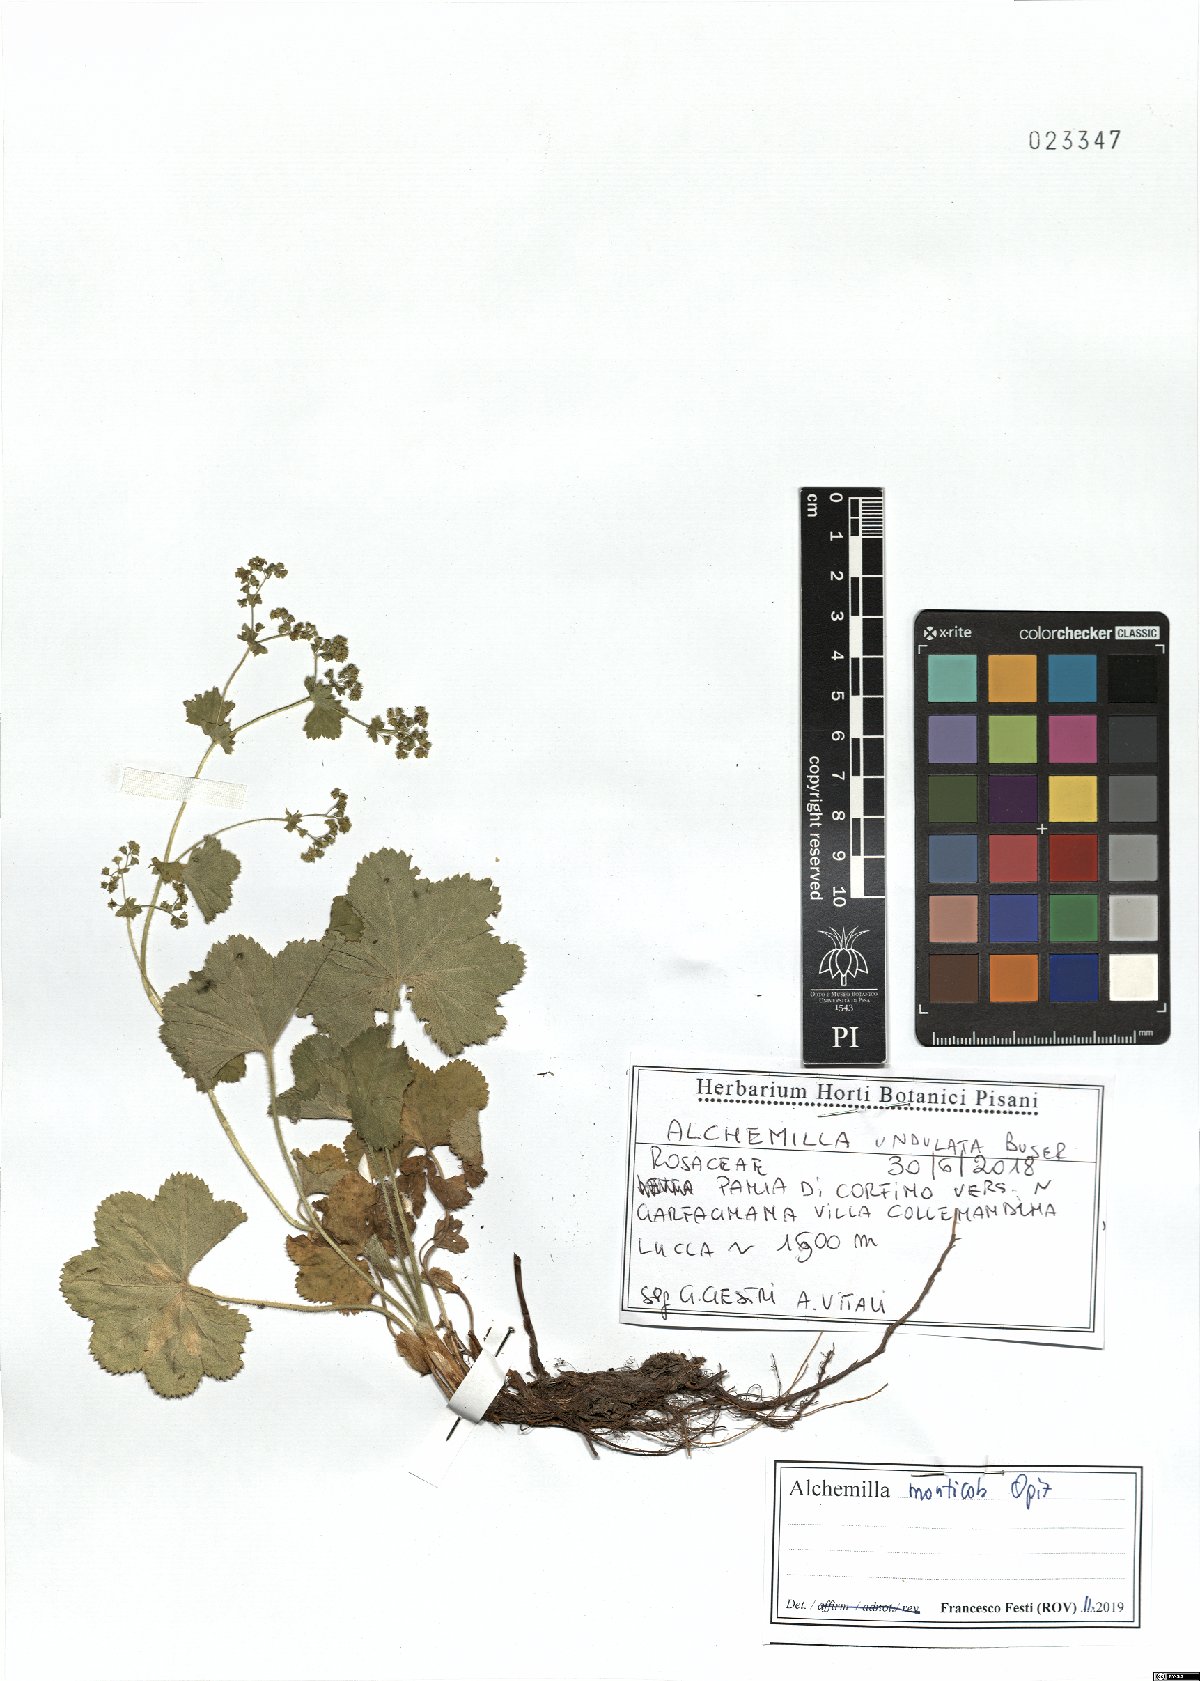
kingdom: Plantae
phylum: Tracheophyta
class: Magnoliopsida
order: Rosales
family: Rosaceae
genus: Alchemilla
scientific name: Alchemilla monticola
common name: Hairy lady's mantle
